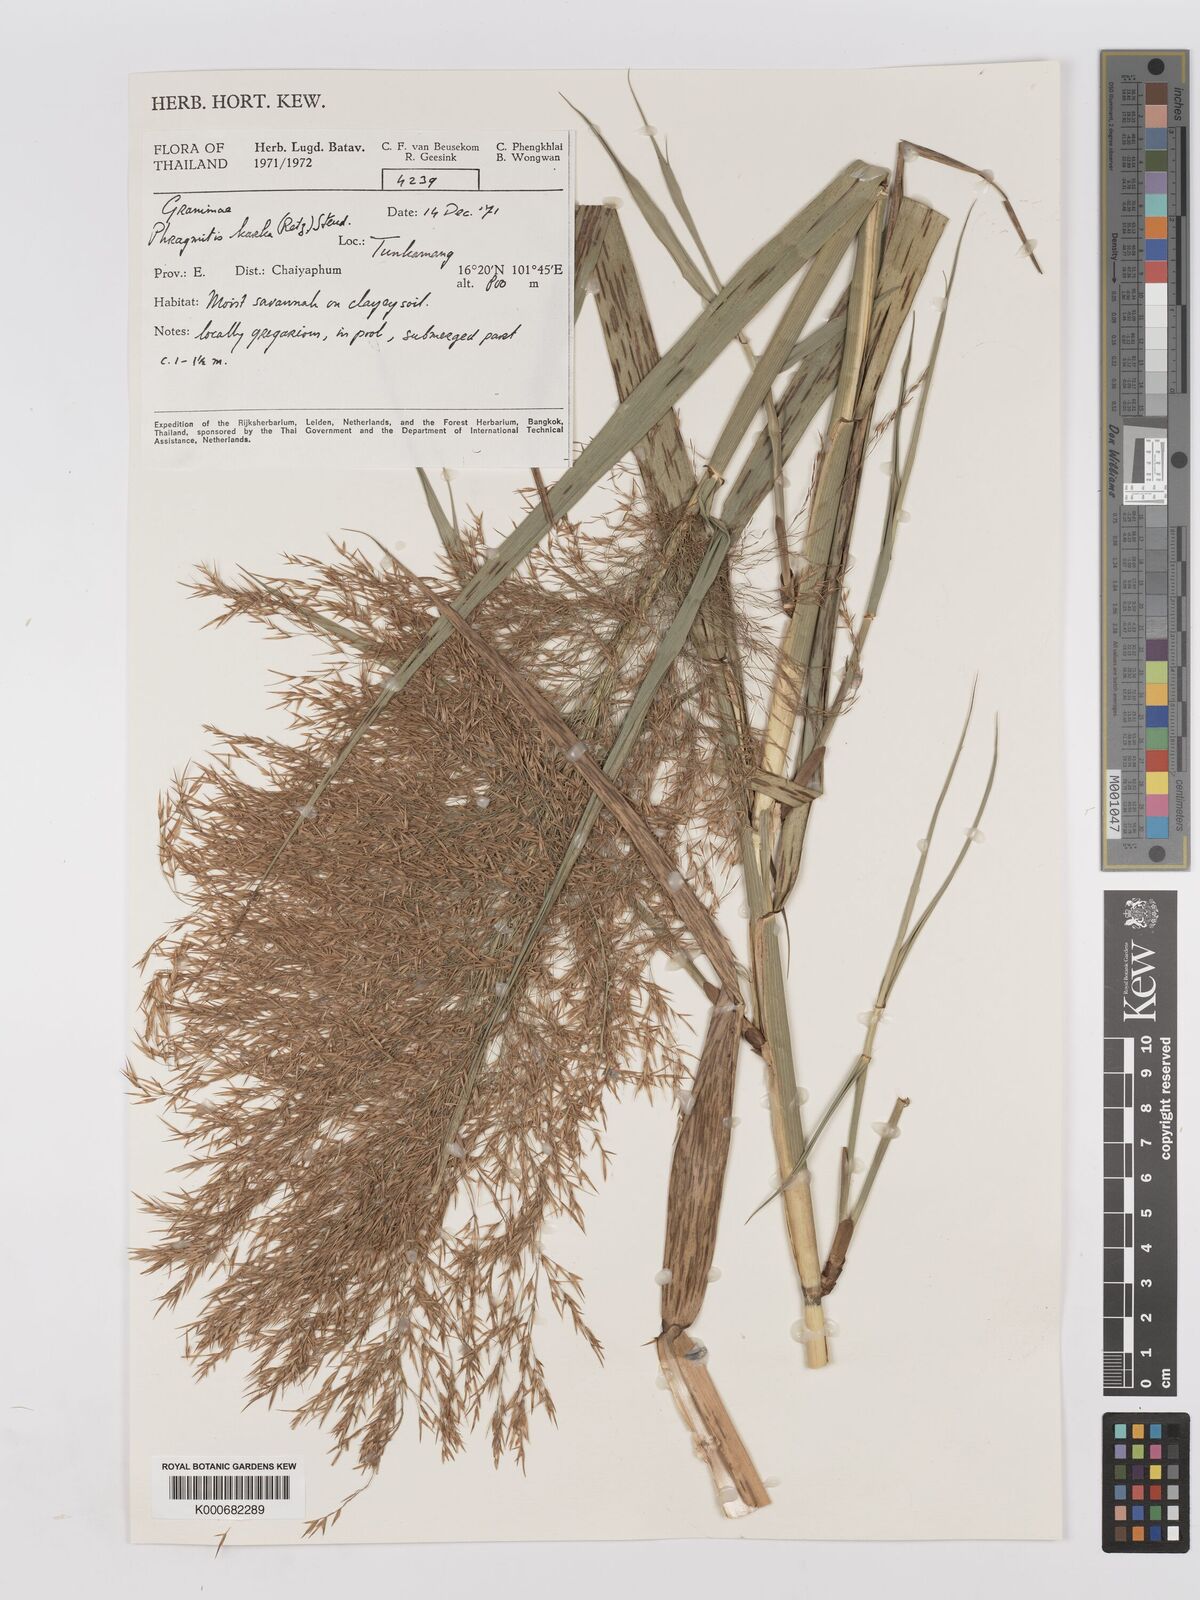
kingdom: Plantae
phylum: Tracheophyta
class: Liliopsida
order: Poales
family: Poaceae
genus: Phragmites
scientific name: Phragmites karka
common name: Tropical reed
